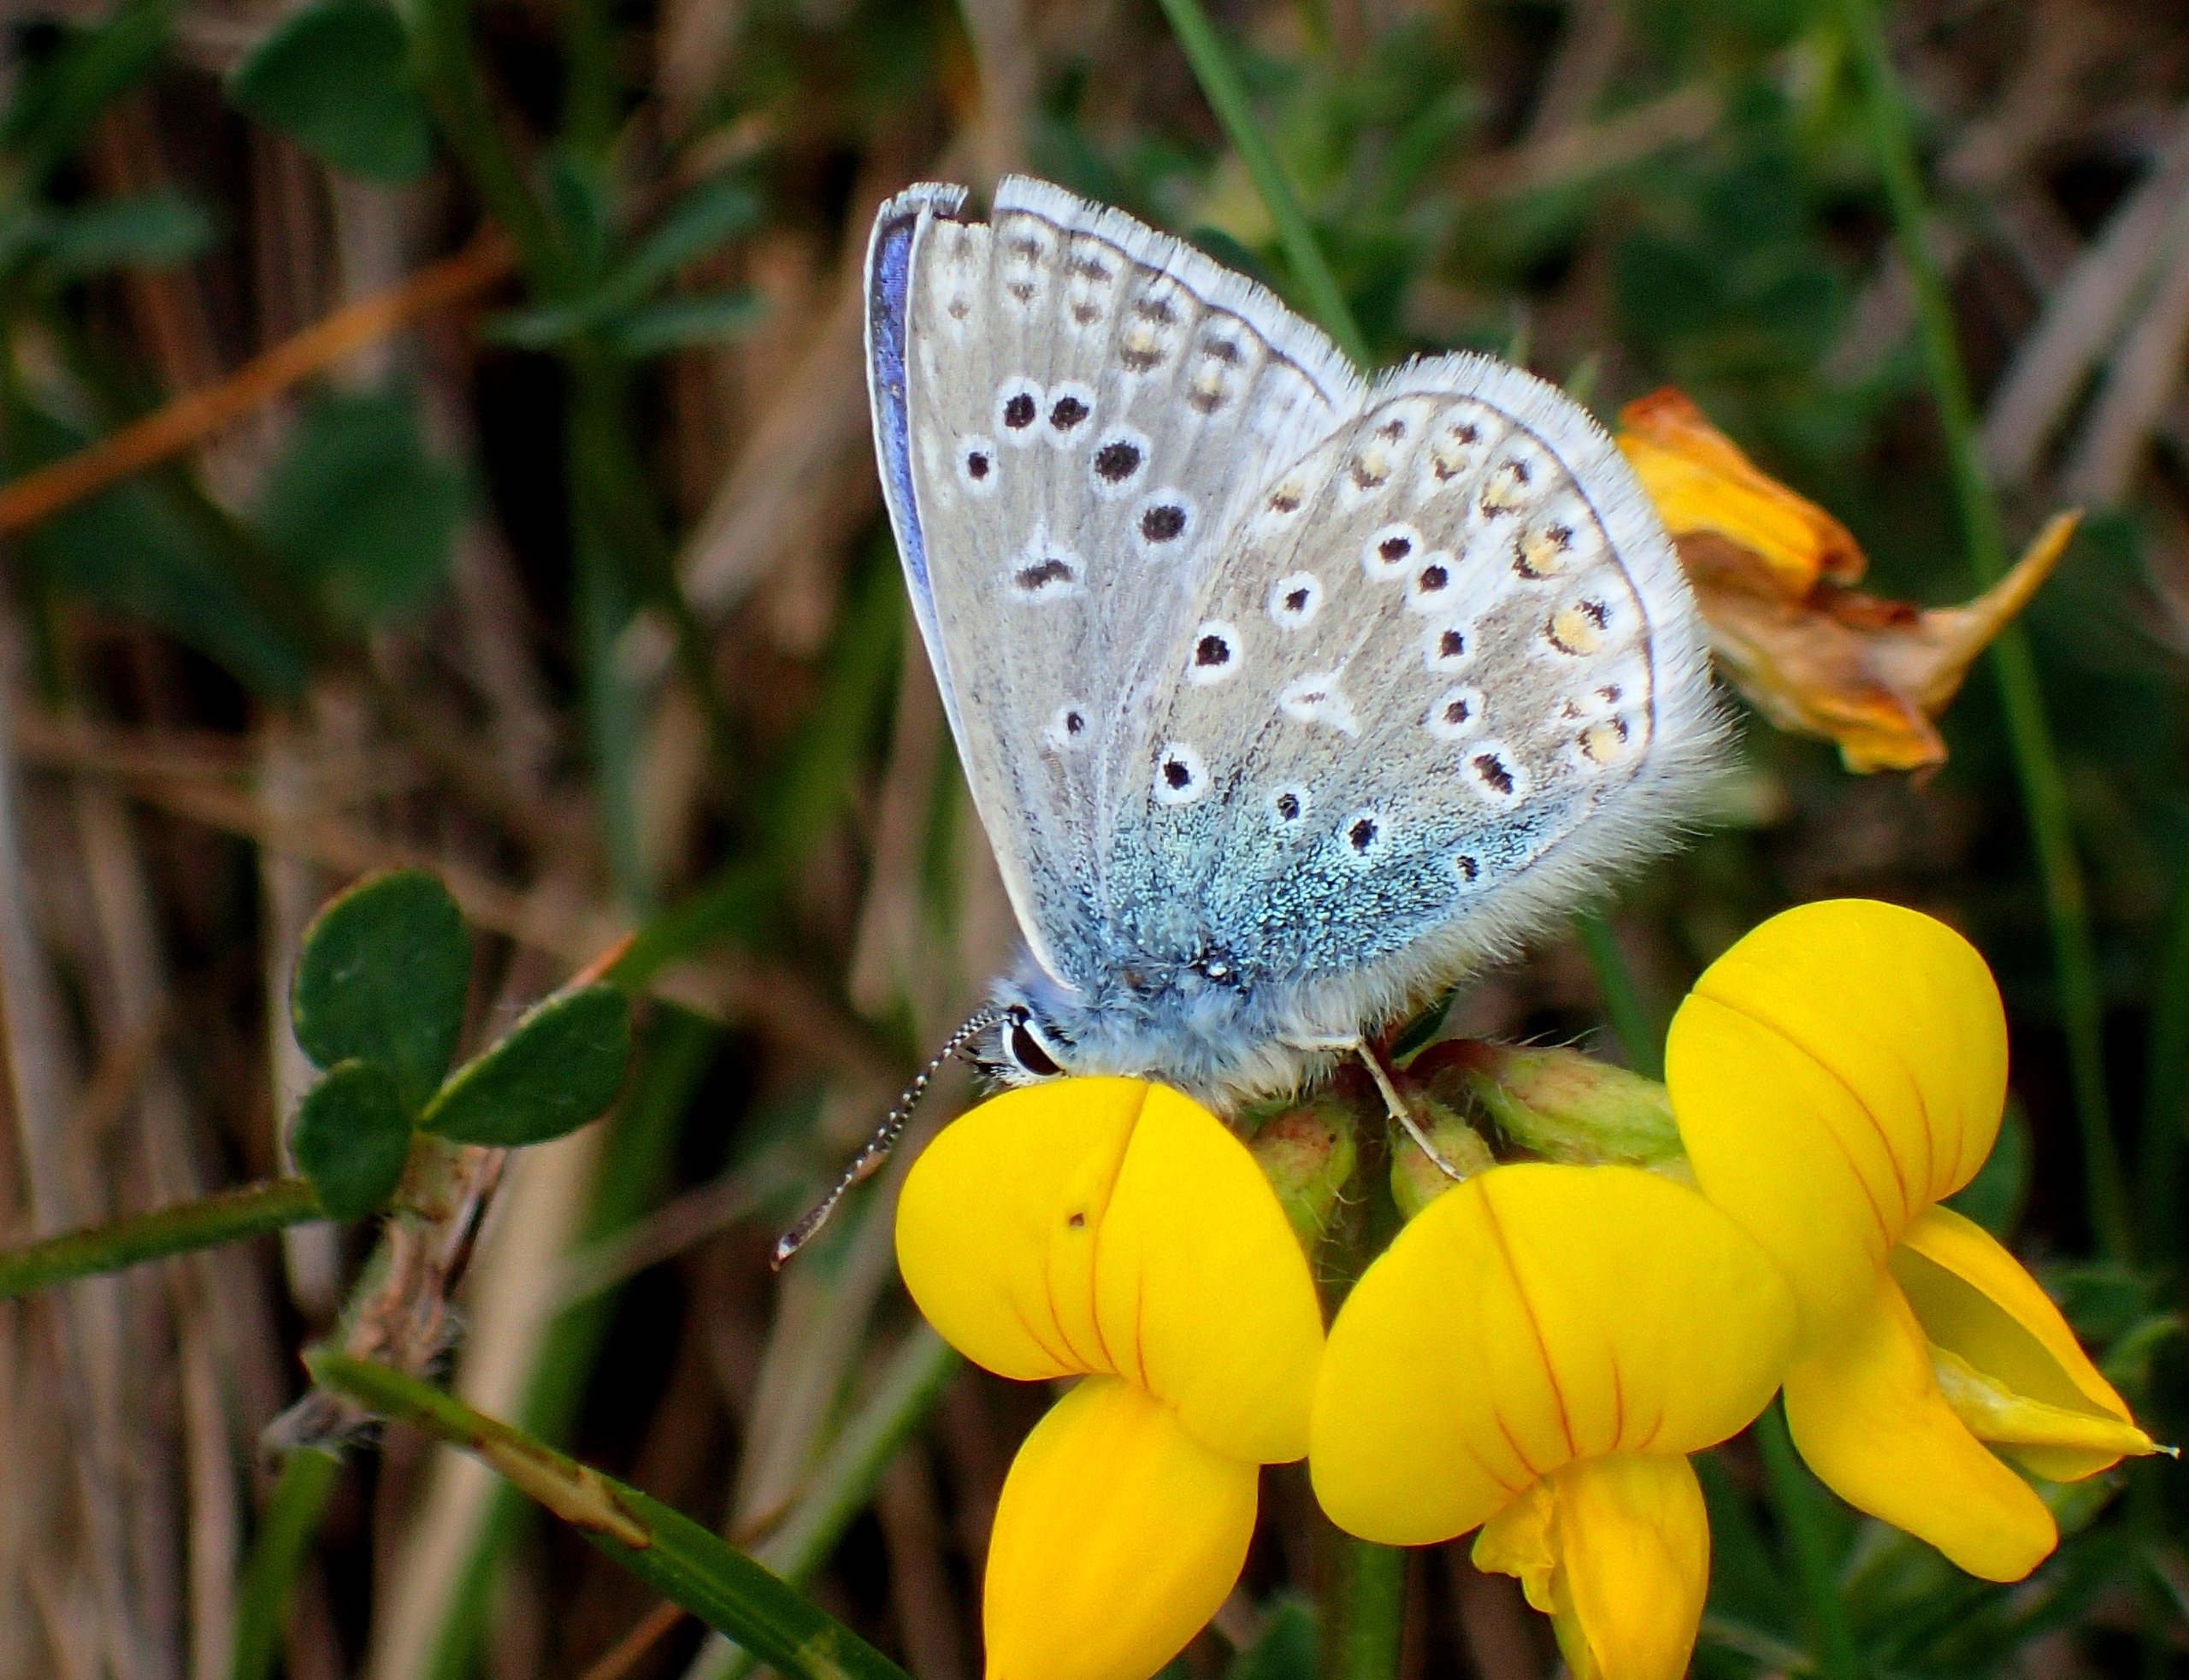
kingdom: Animalia
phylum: Arthropoda
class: Insecta
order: Lepidoptera
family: Lycaenidae
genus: Polyommatus
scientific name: Polyommatus icarus
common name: Almindelig blåfugl
